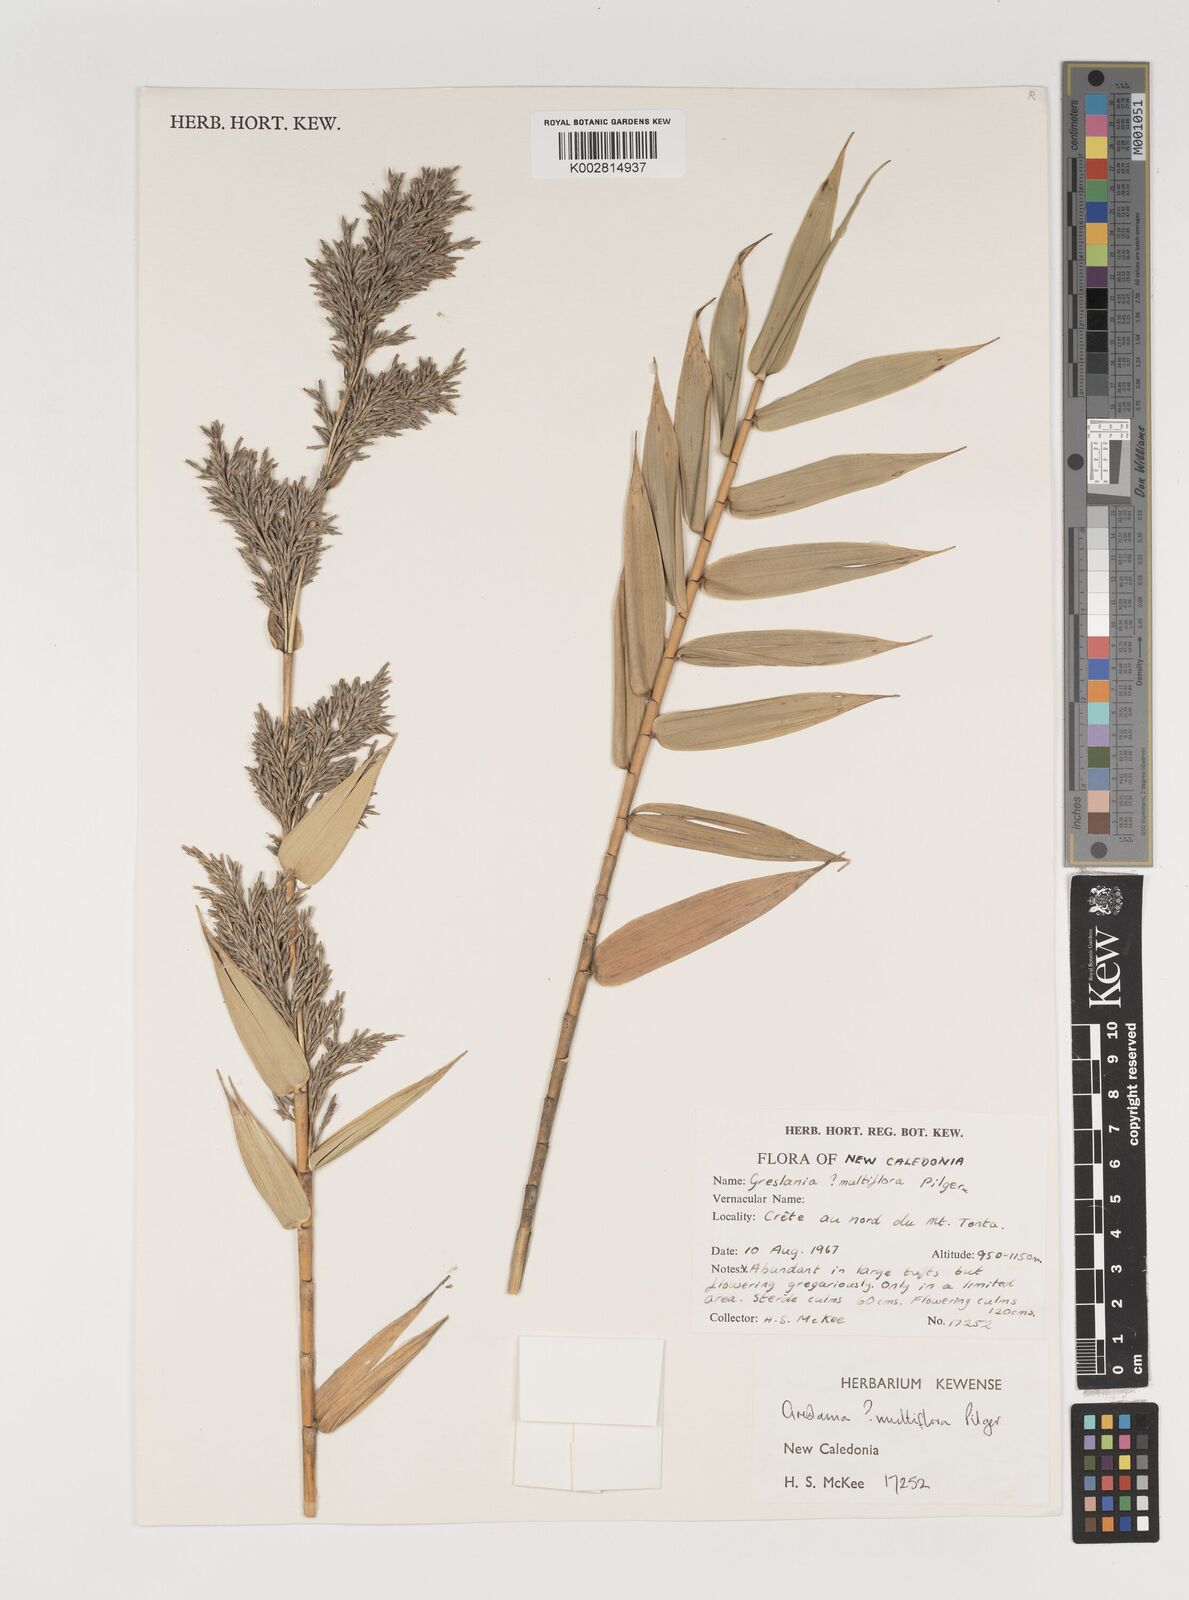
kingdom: Plantae
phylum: Tracheophyta
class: Liliopsida
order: Poales
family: Poaceae
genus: Greslania
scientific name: Greslania circinata
